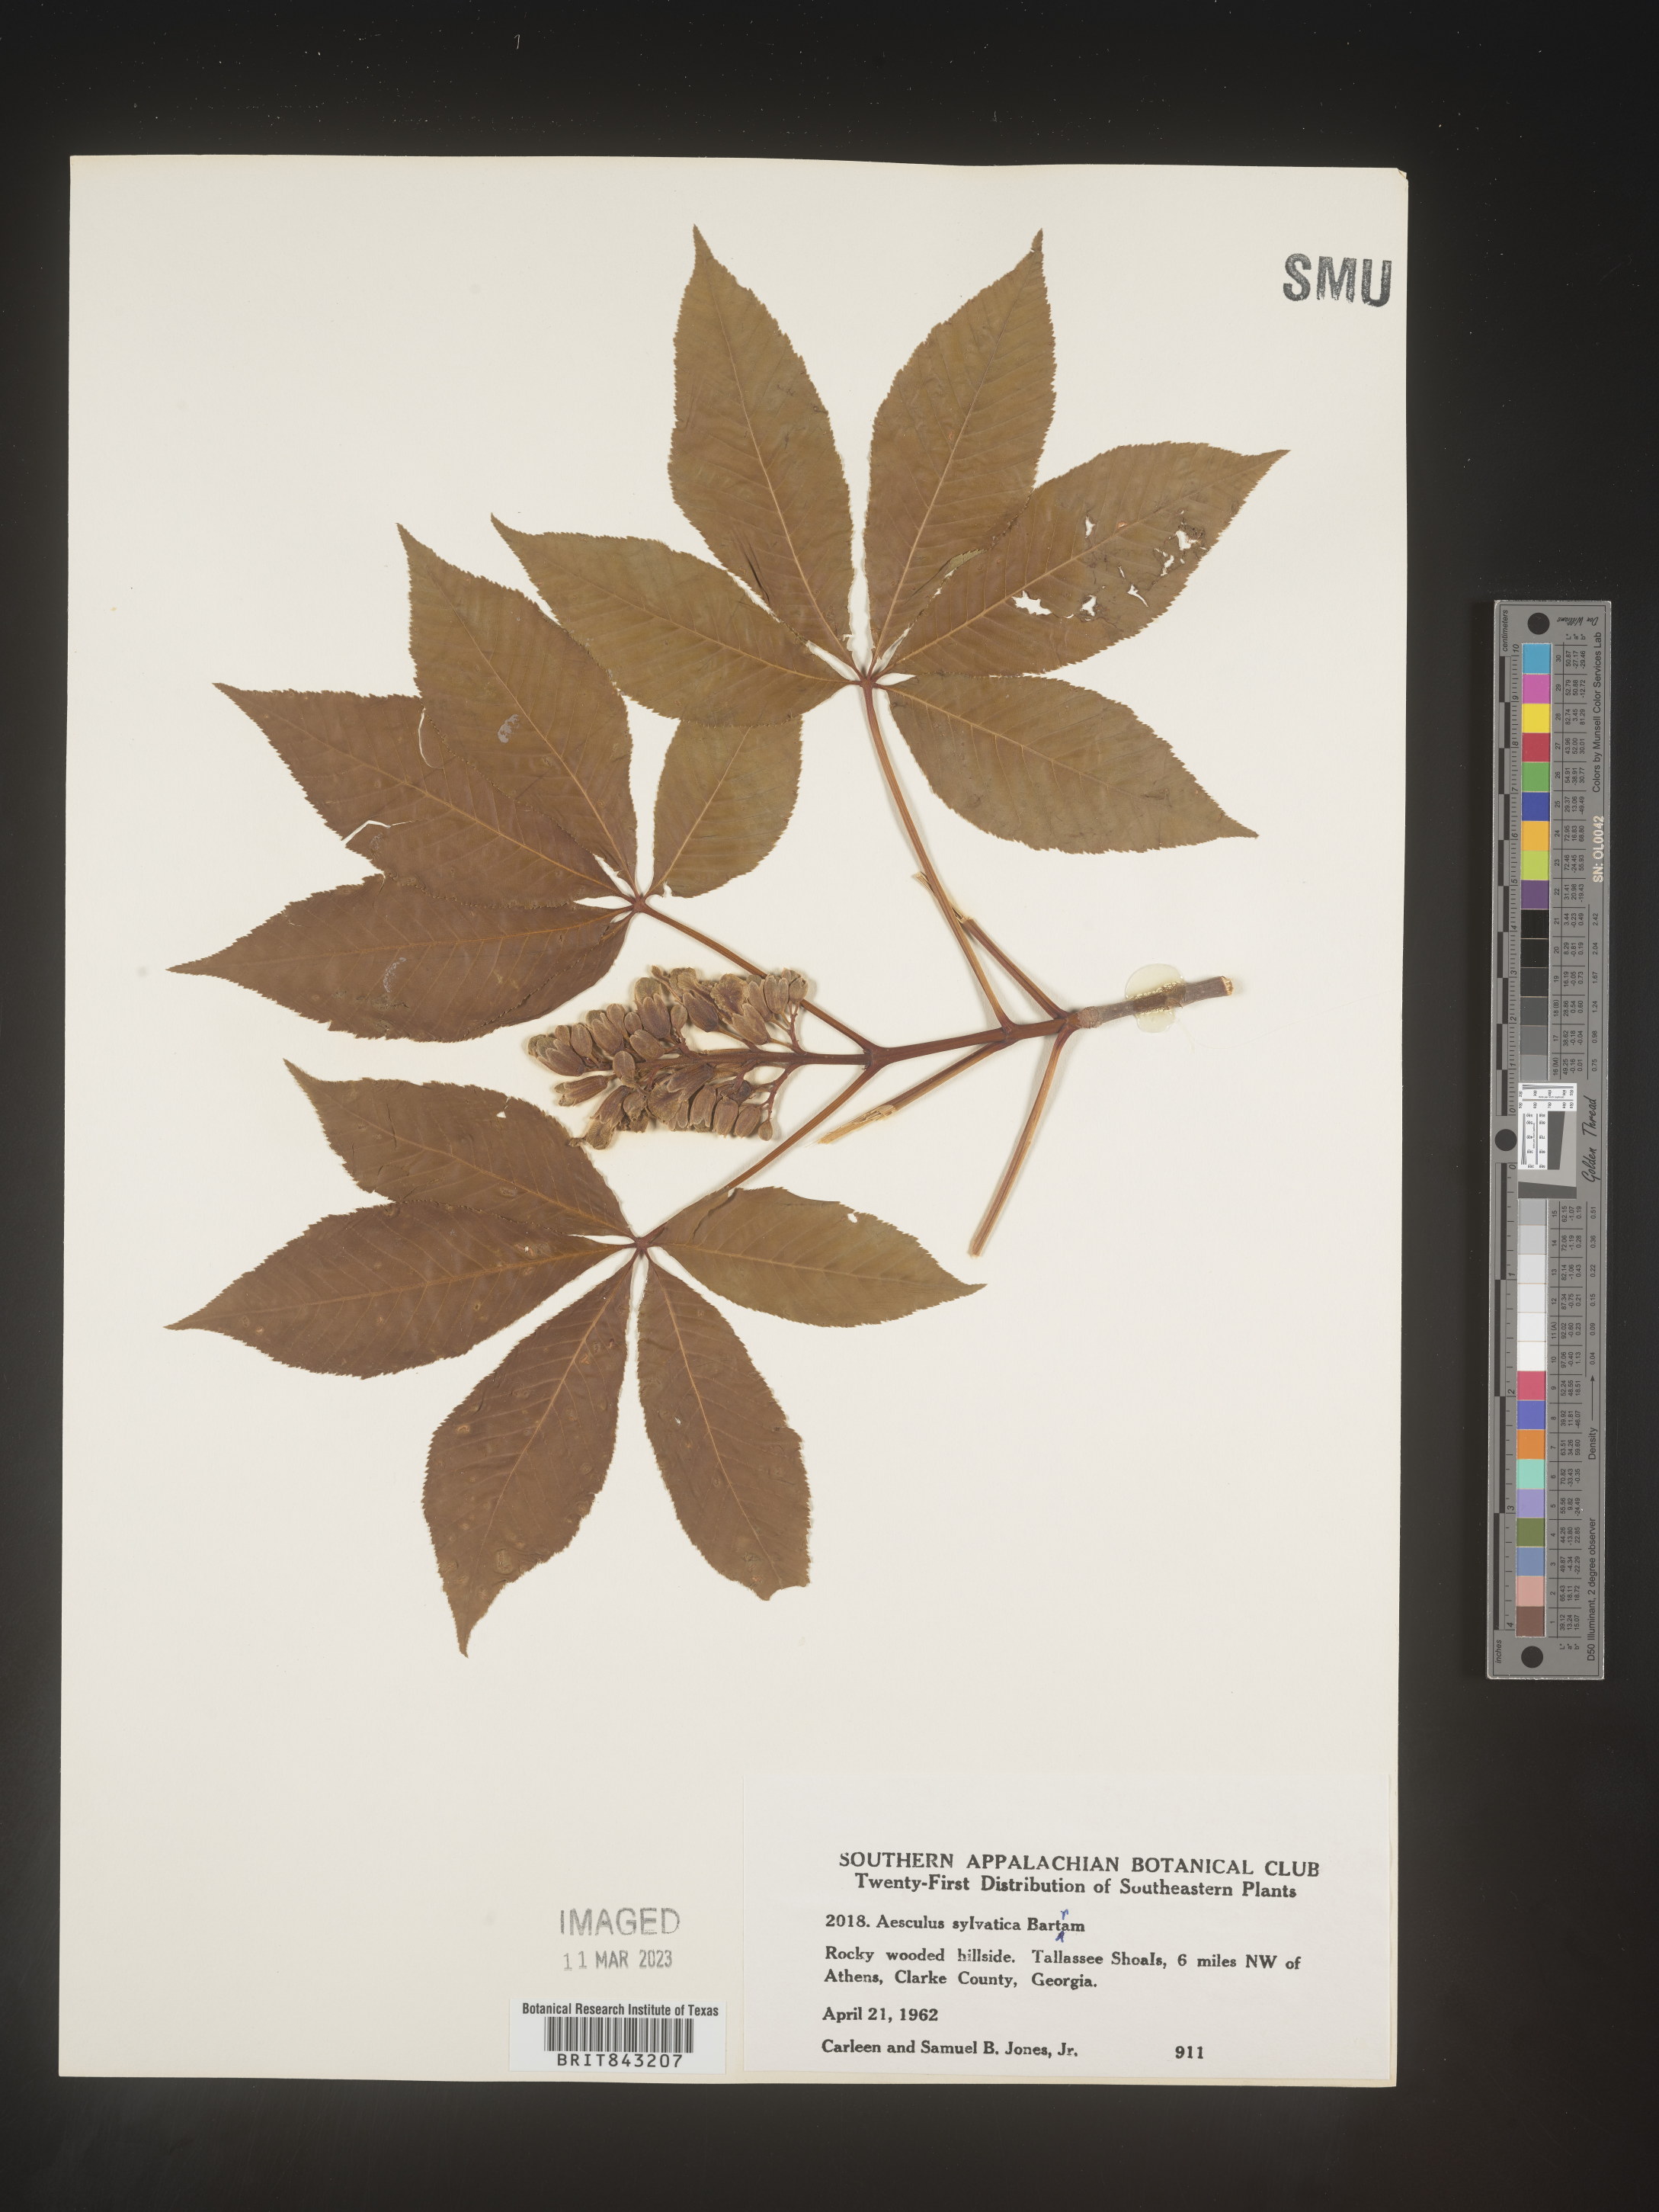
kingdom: Plantae
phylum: Tracheophyta
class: Magnoliopsida
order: Sapindales
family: Sapindaceae
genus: Aesculus
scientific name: Aesculus
